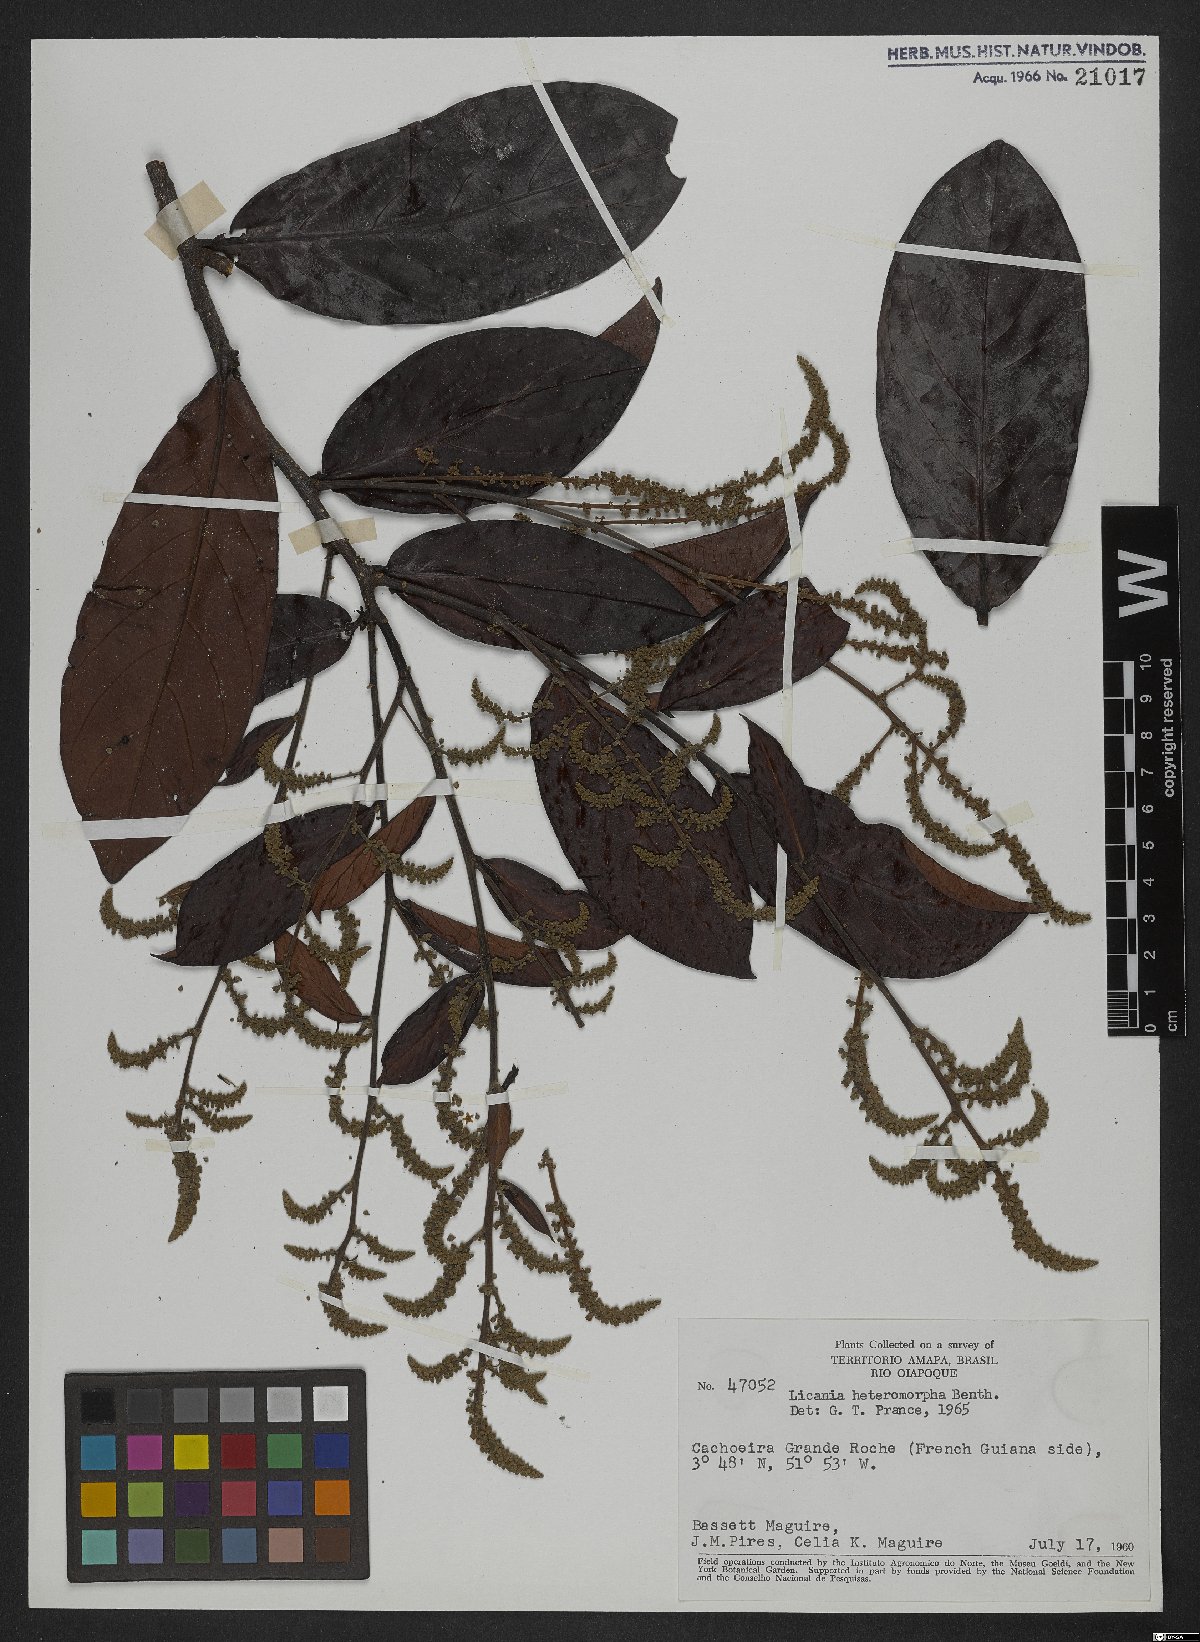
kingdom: Plantae
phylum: Tracheophyta
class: Magnoliopsida
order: Malpighiales
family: Chrysobalanaceae
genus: Hymenopus
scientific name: Hymenopus heteromorphus
